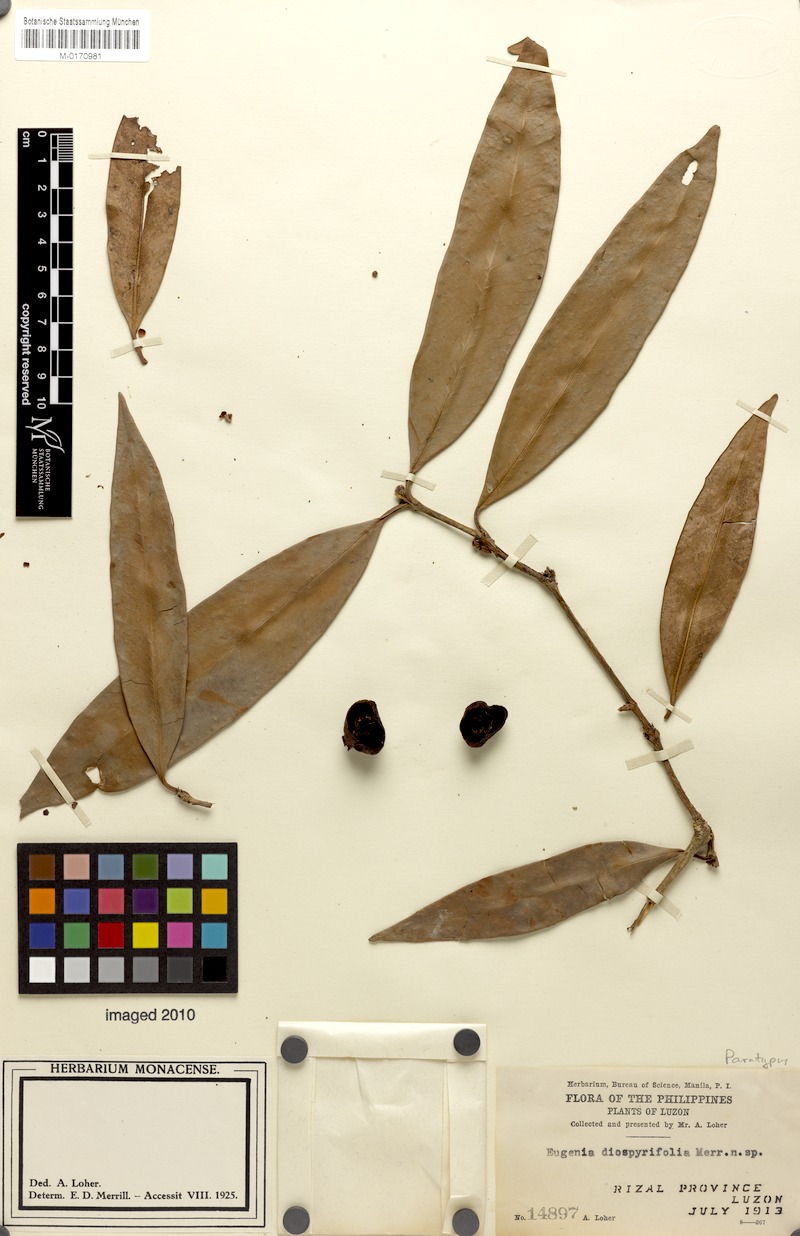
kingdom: Plantae
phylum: Tracheophyta
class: Magnoliopsida
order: Myrtales
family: Myrtaceae
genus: Eugenia
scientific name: Eugenia montalbanica
